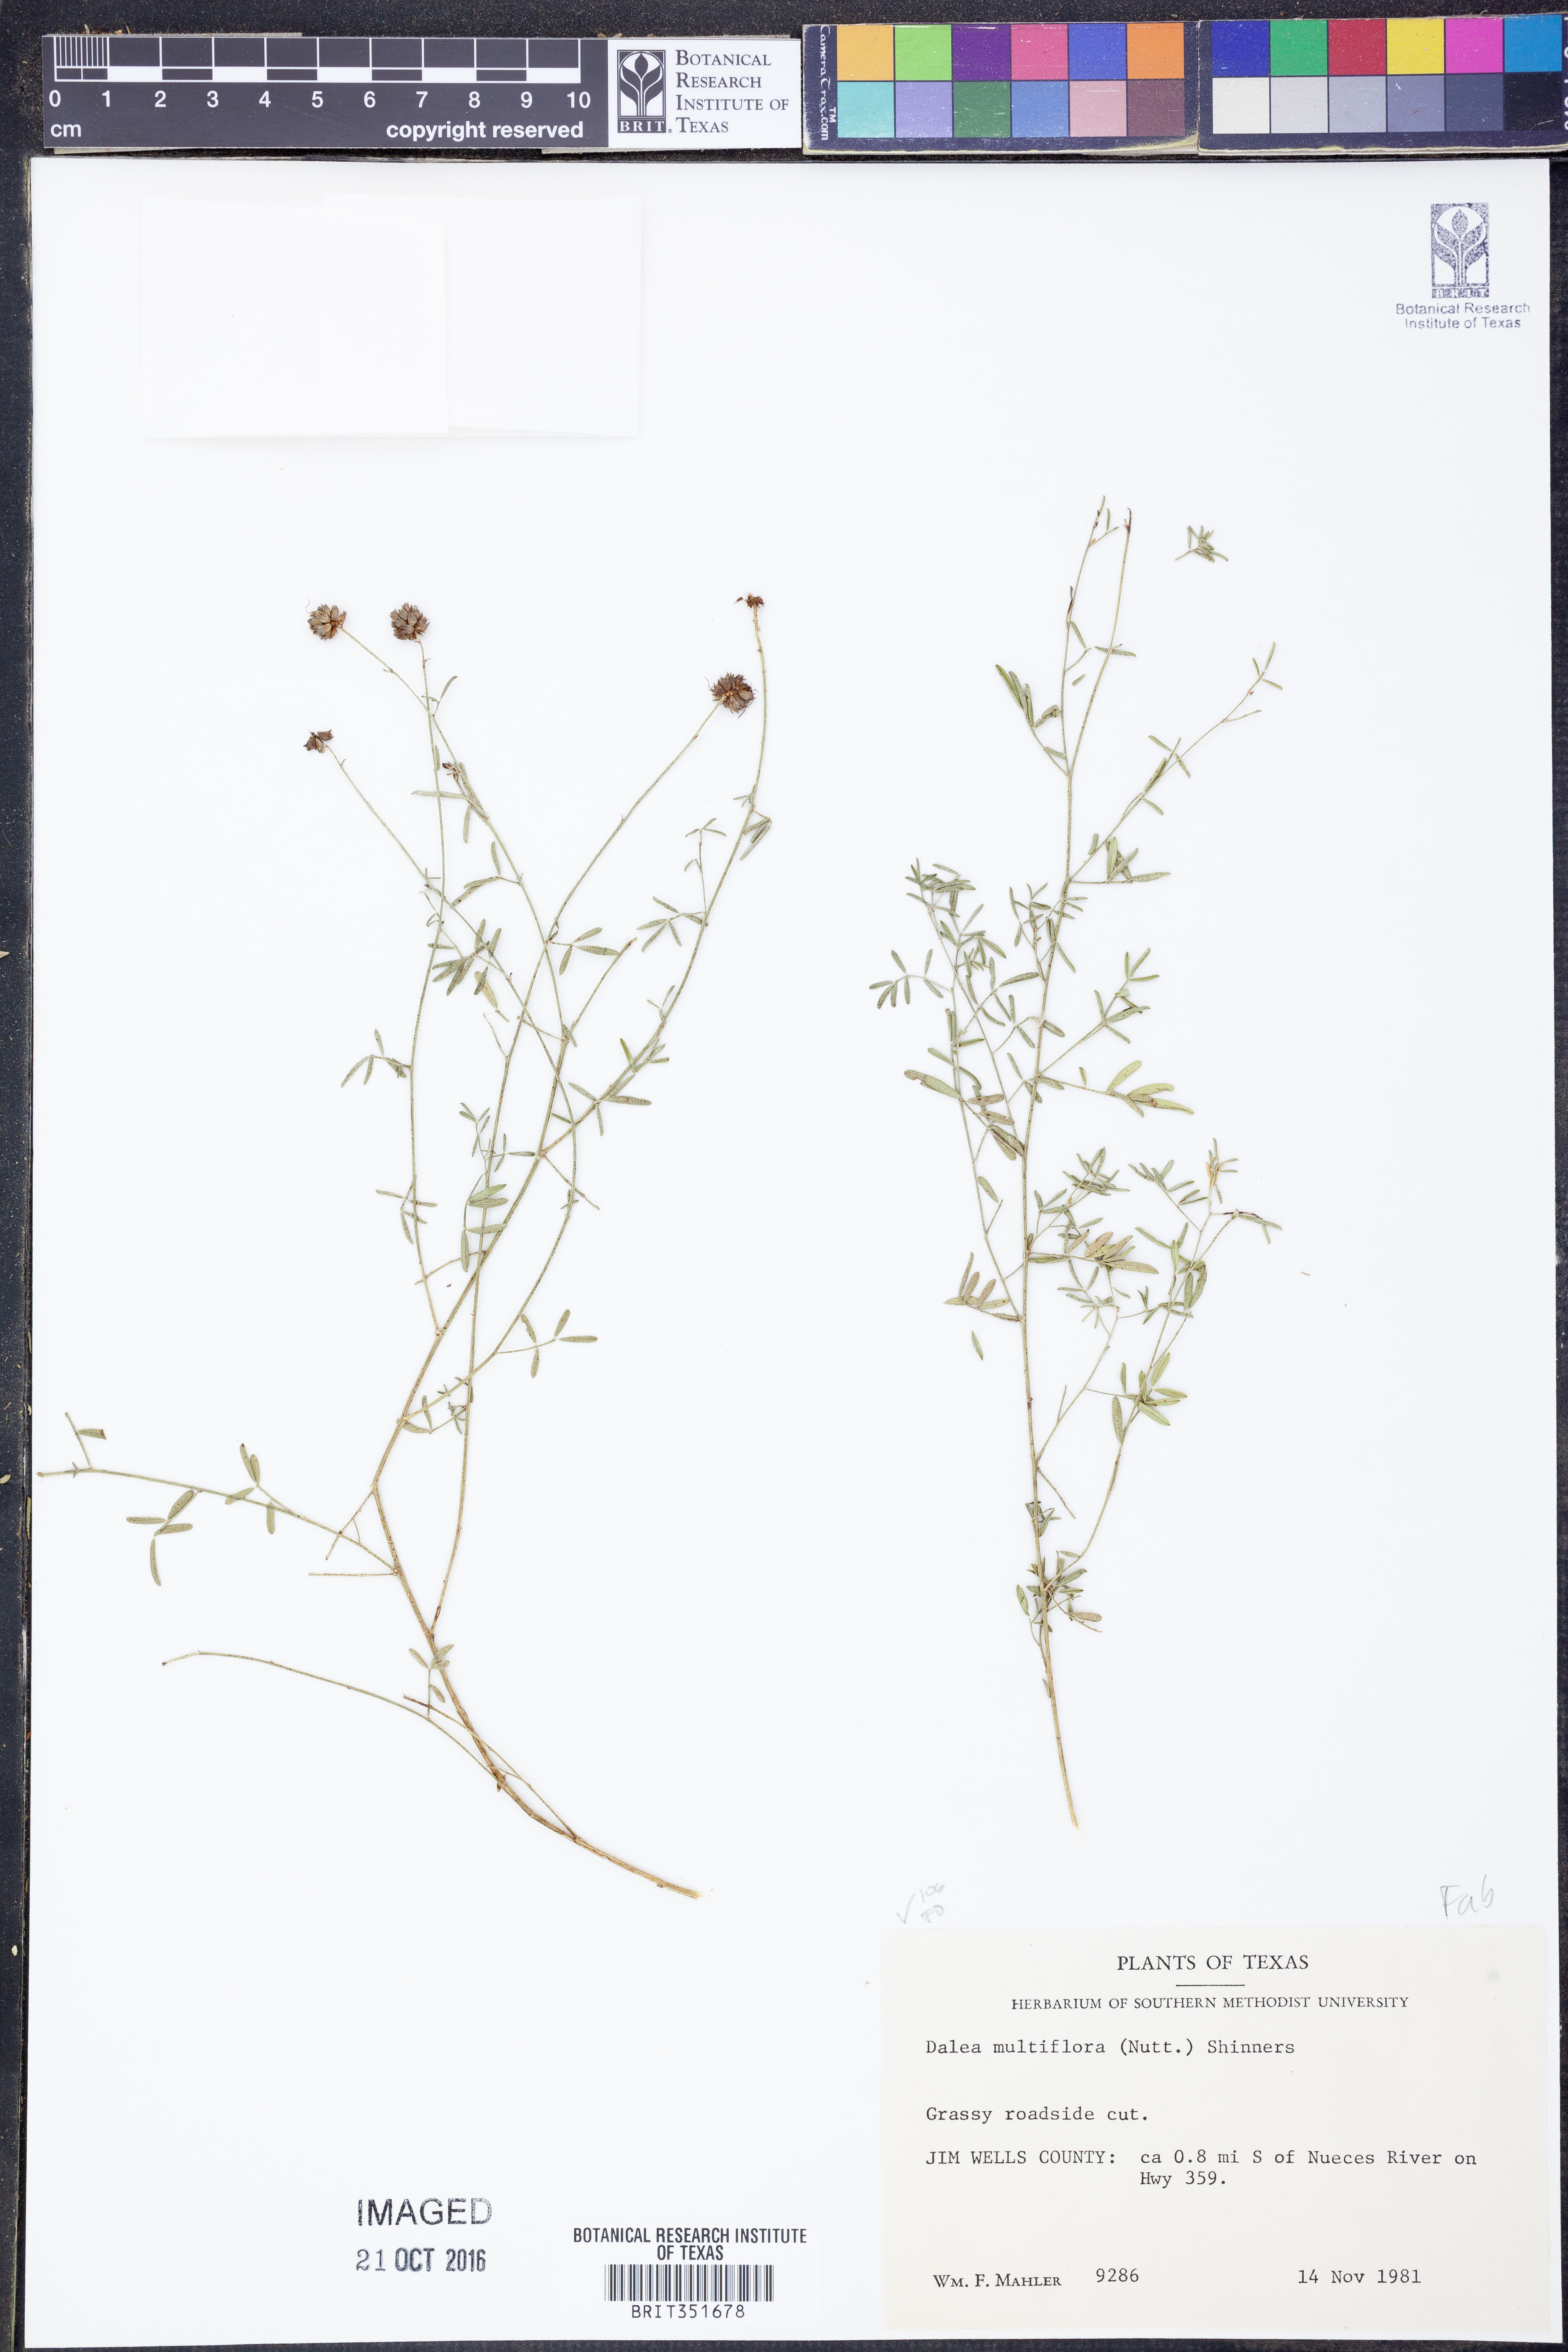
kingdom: Plantae
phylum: Tracheophyta
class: Magnoliopsida
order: Fabales
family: Fabaceae
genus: Dalea
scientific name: Dalea multiflora
